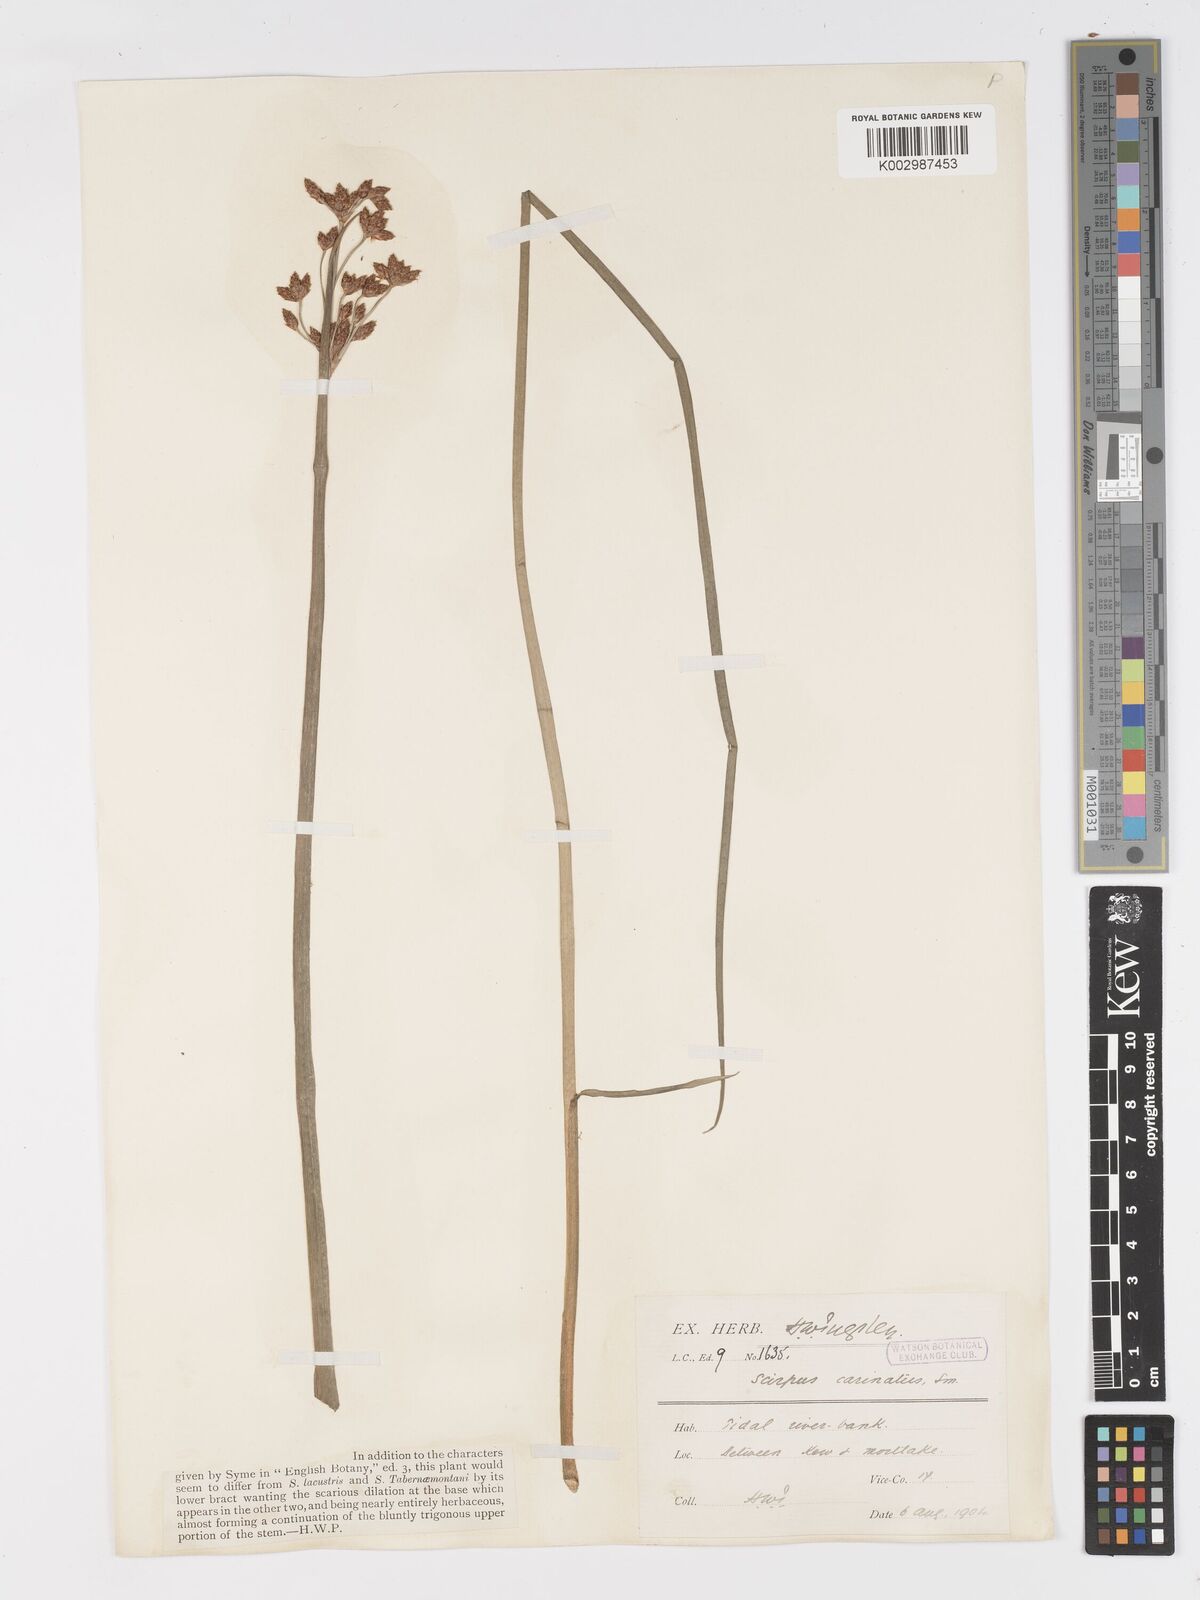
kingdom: Plantae
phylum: Tracheophyta
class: Liliopsida
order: Poales
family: Cyperaceae
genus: Schoenoplectus
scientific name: Schoenoplectus carinatus
